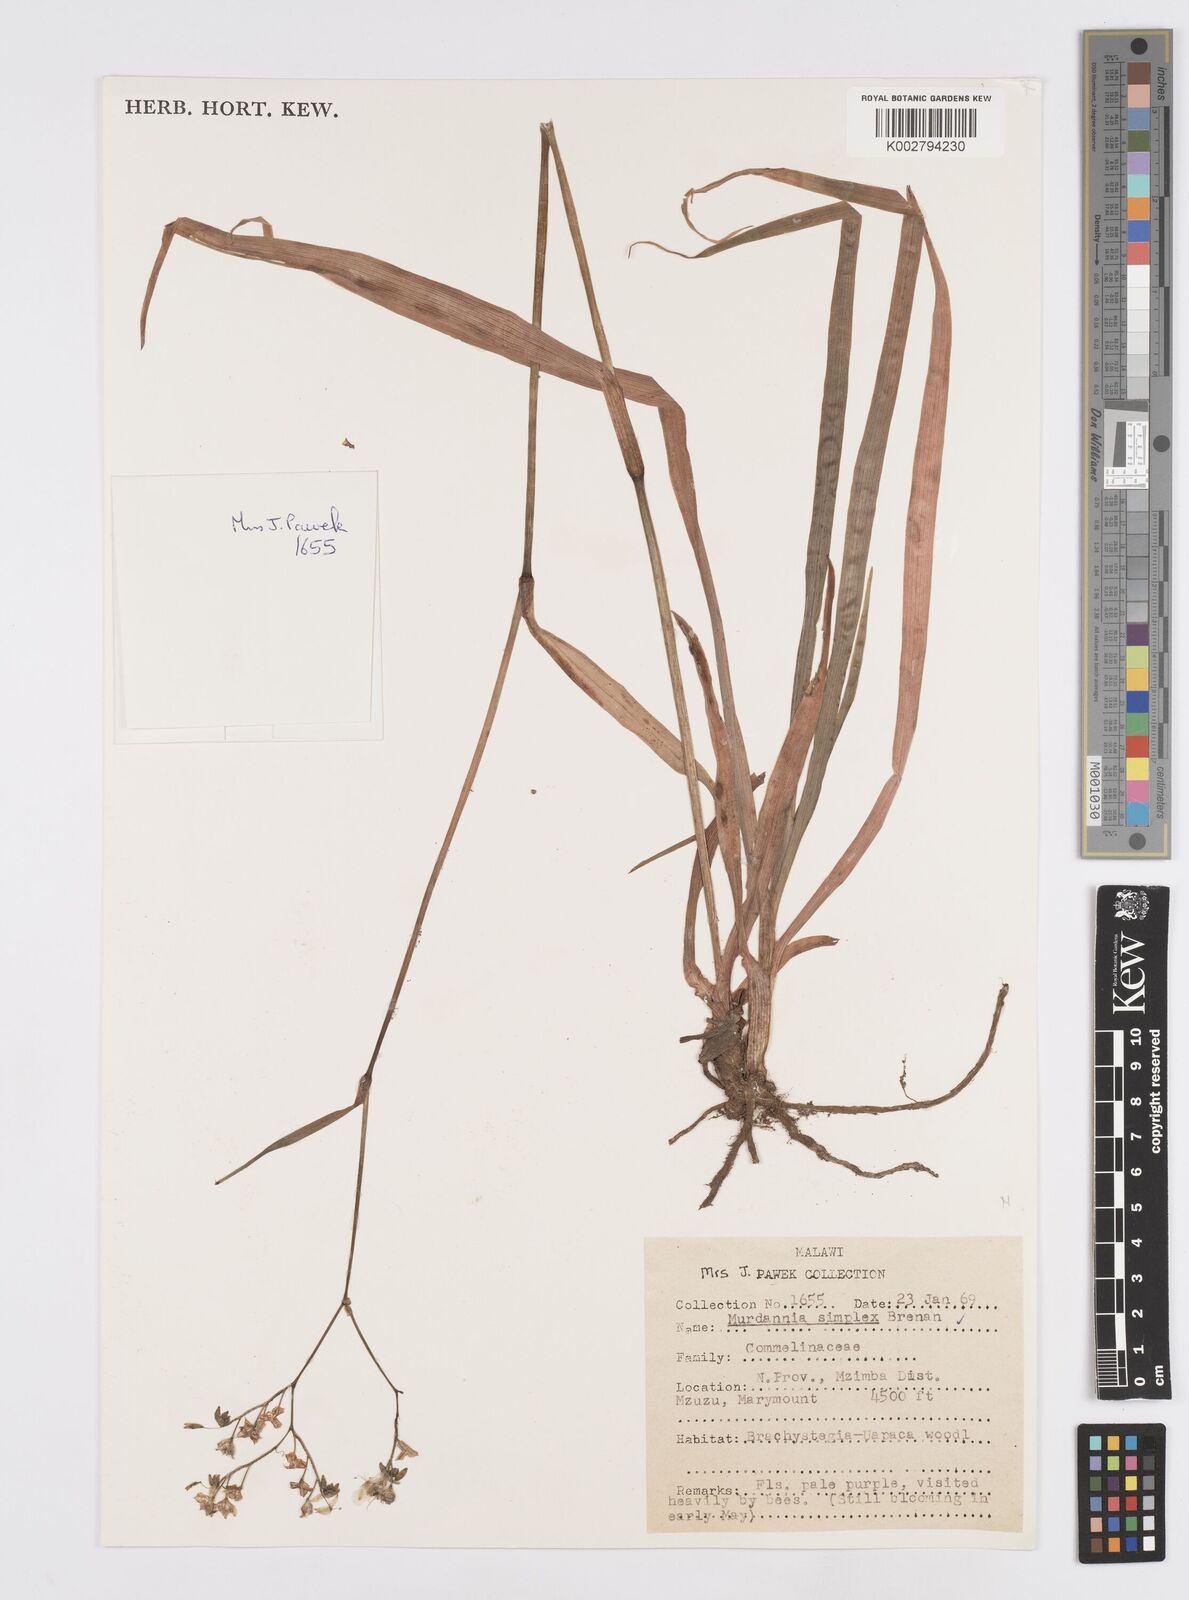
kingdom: Plantae
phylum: Tracheophyta
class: Liliopsida
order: Commelinales
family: Commelinaceae
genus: Murdannia
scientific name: Murdannia simplex
